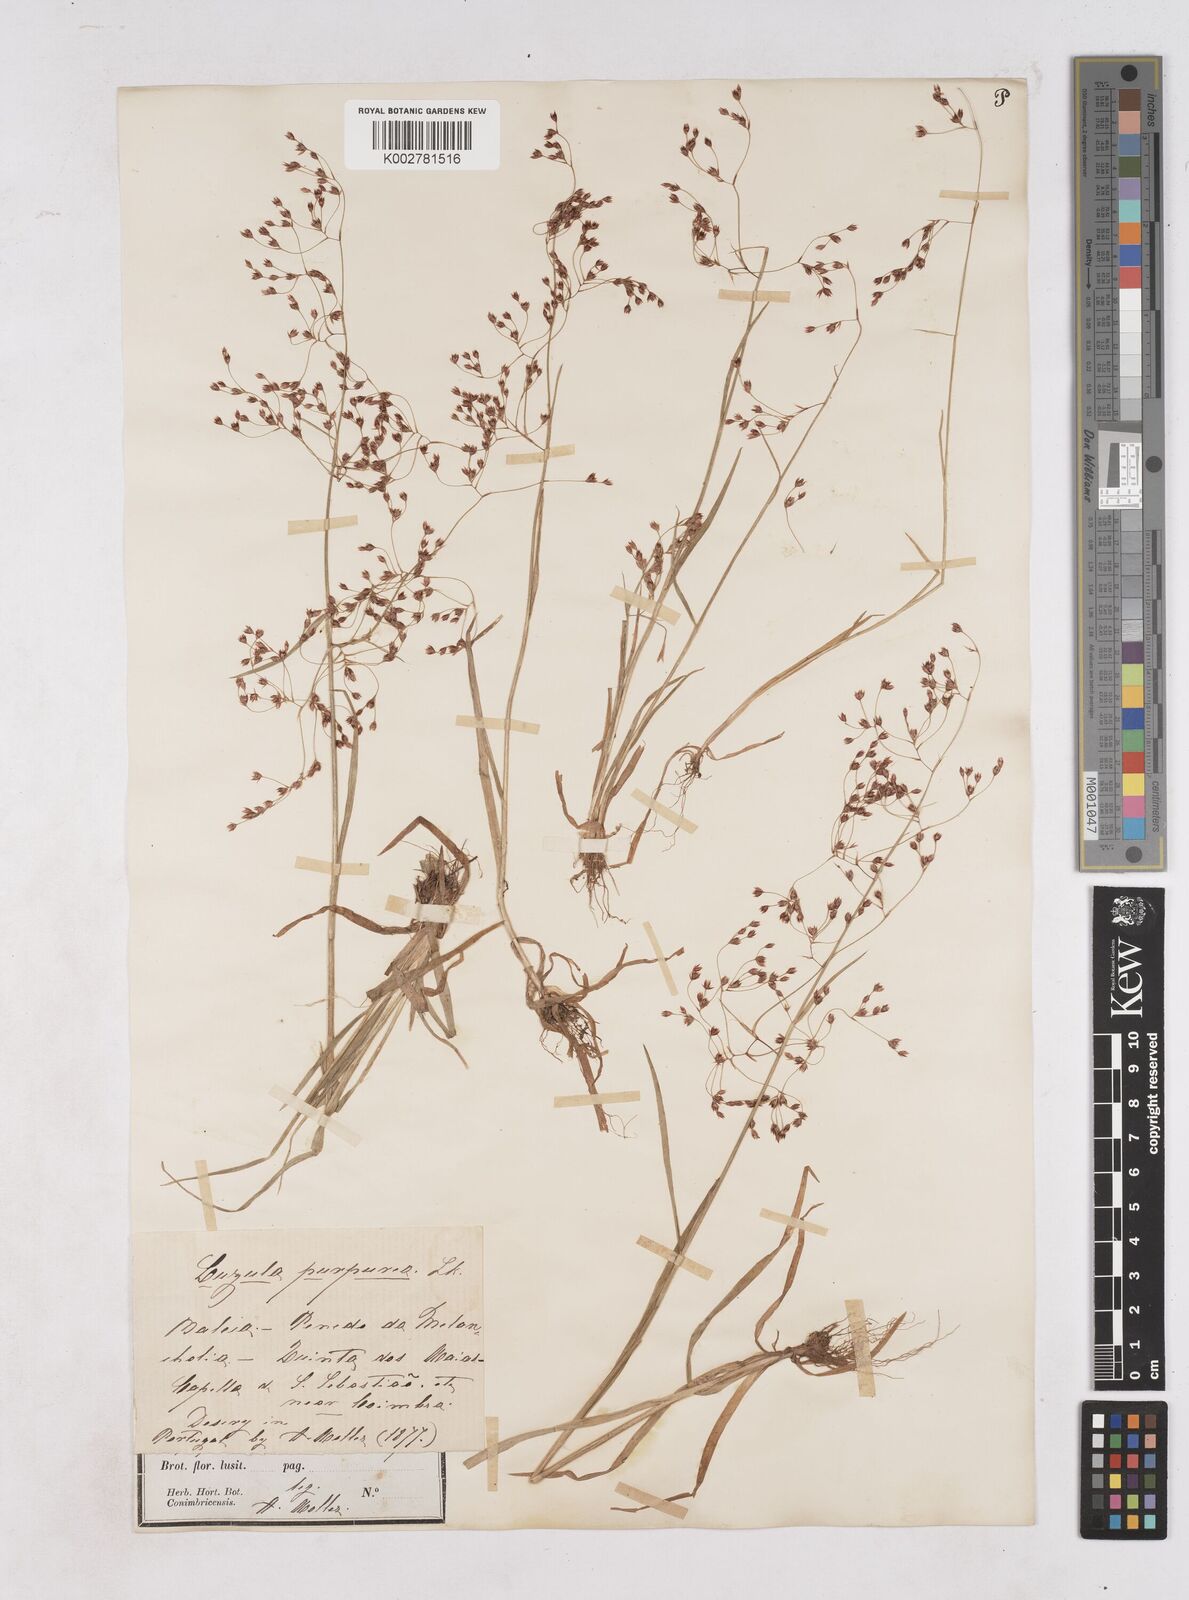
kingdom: Plantae
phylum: Tracheophyta
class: Liliopsida
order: Poales
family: Juncaceae
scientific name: Juncaceae
